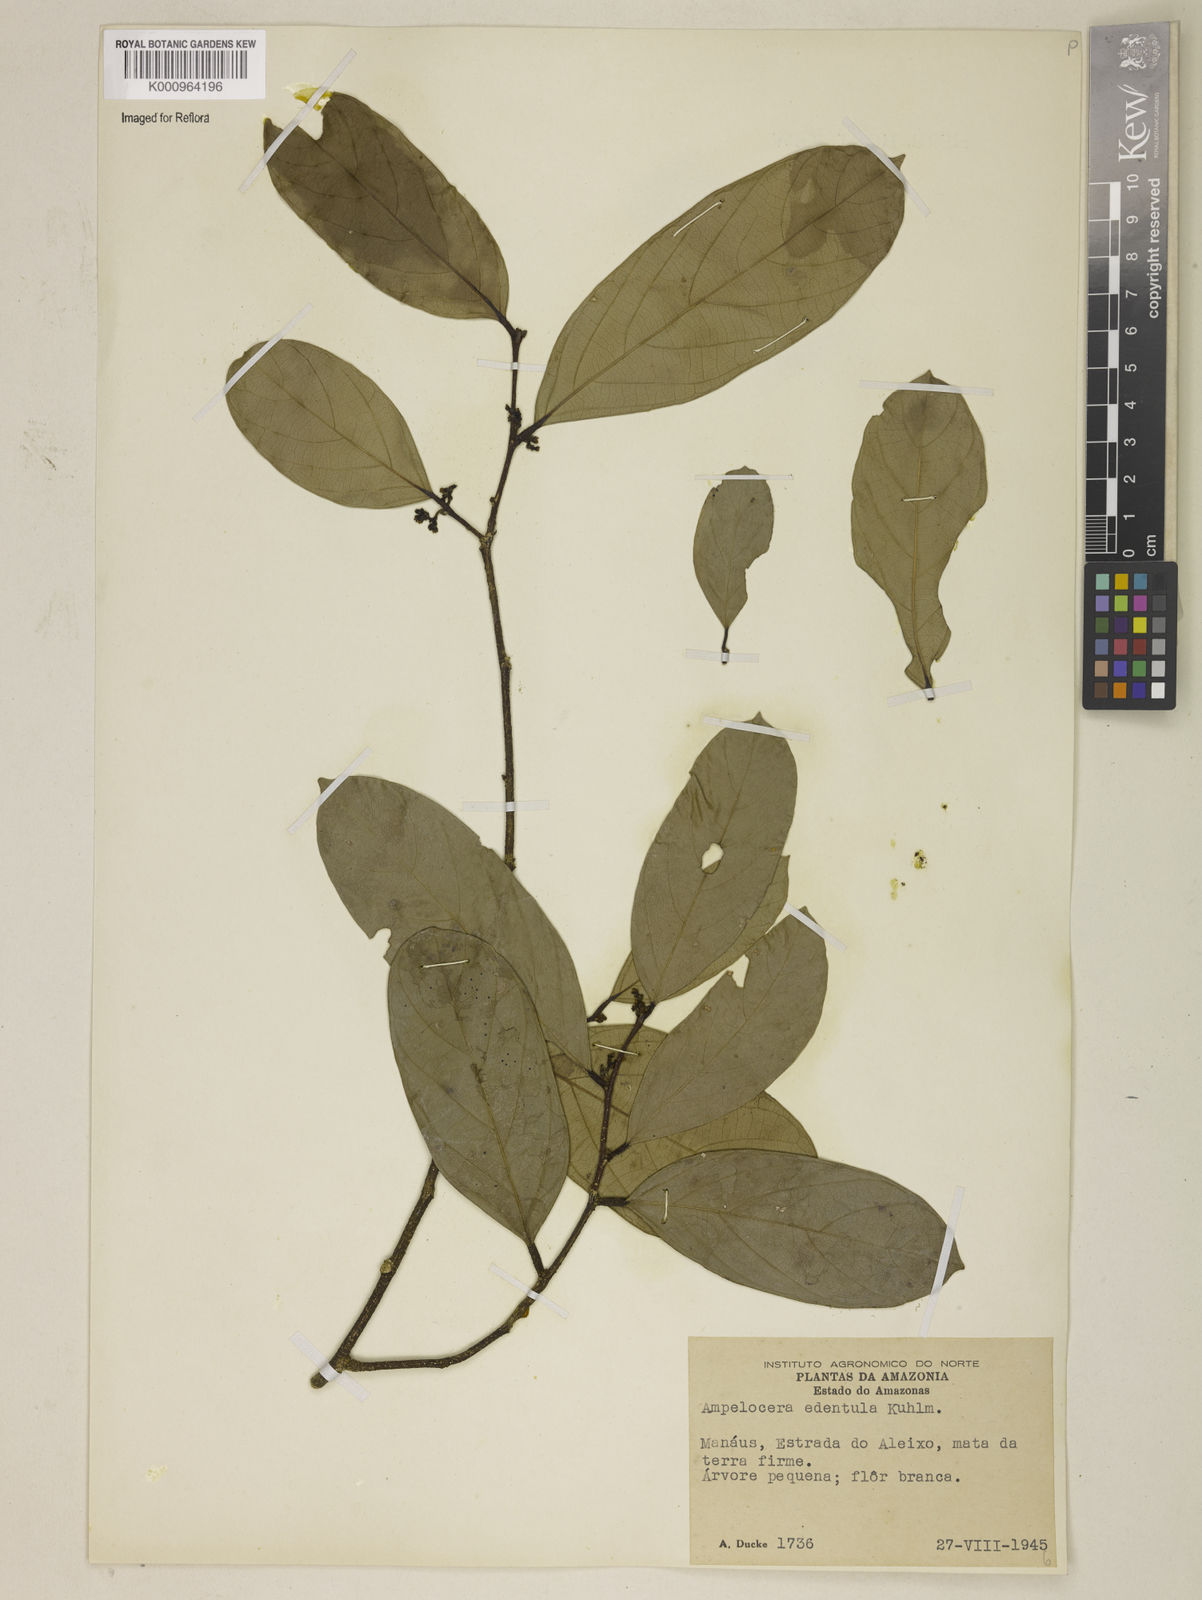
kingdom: Plantae
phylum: Tracheophyta
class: Magnoliopsida
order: Rosales
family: Cannabaceae
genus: Ampelocera
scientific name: Ampelocera edentula
